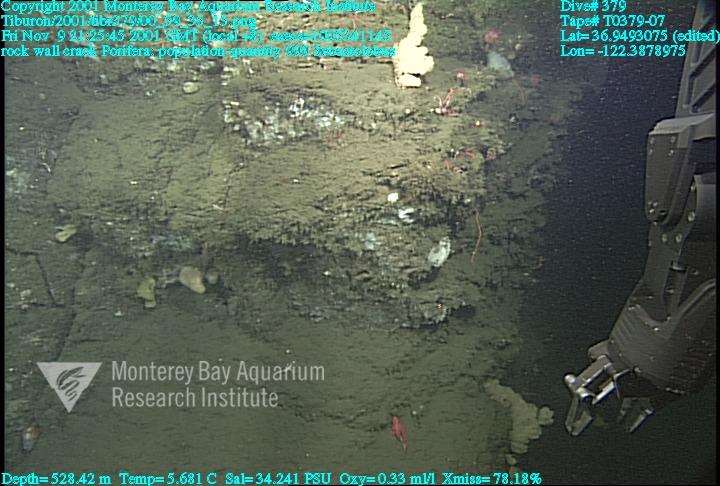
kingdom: Animalia
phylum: Porifera
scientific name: Porifera
